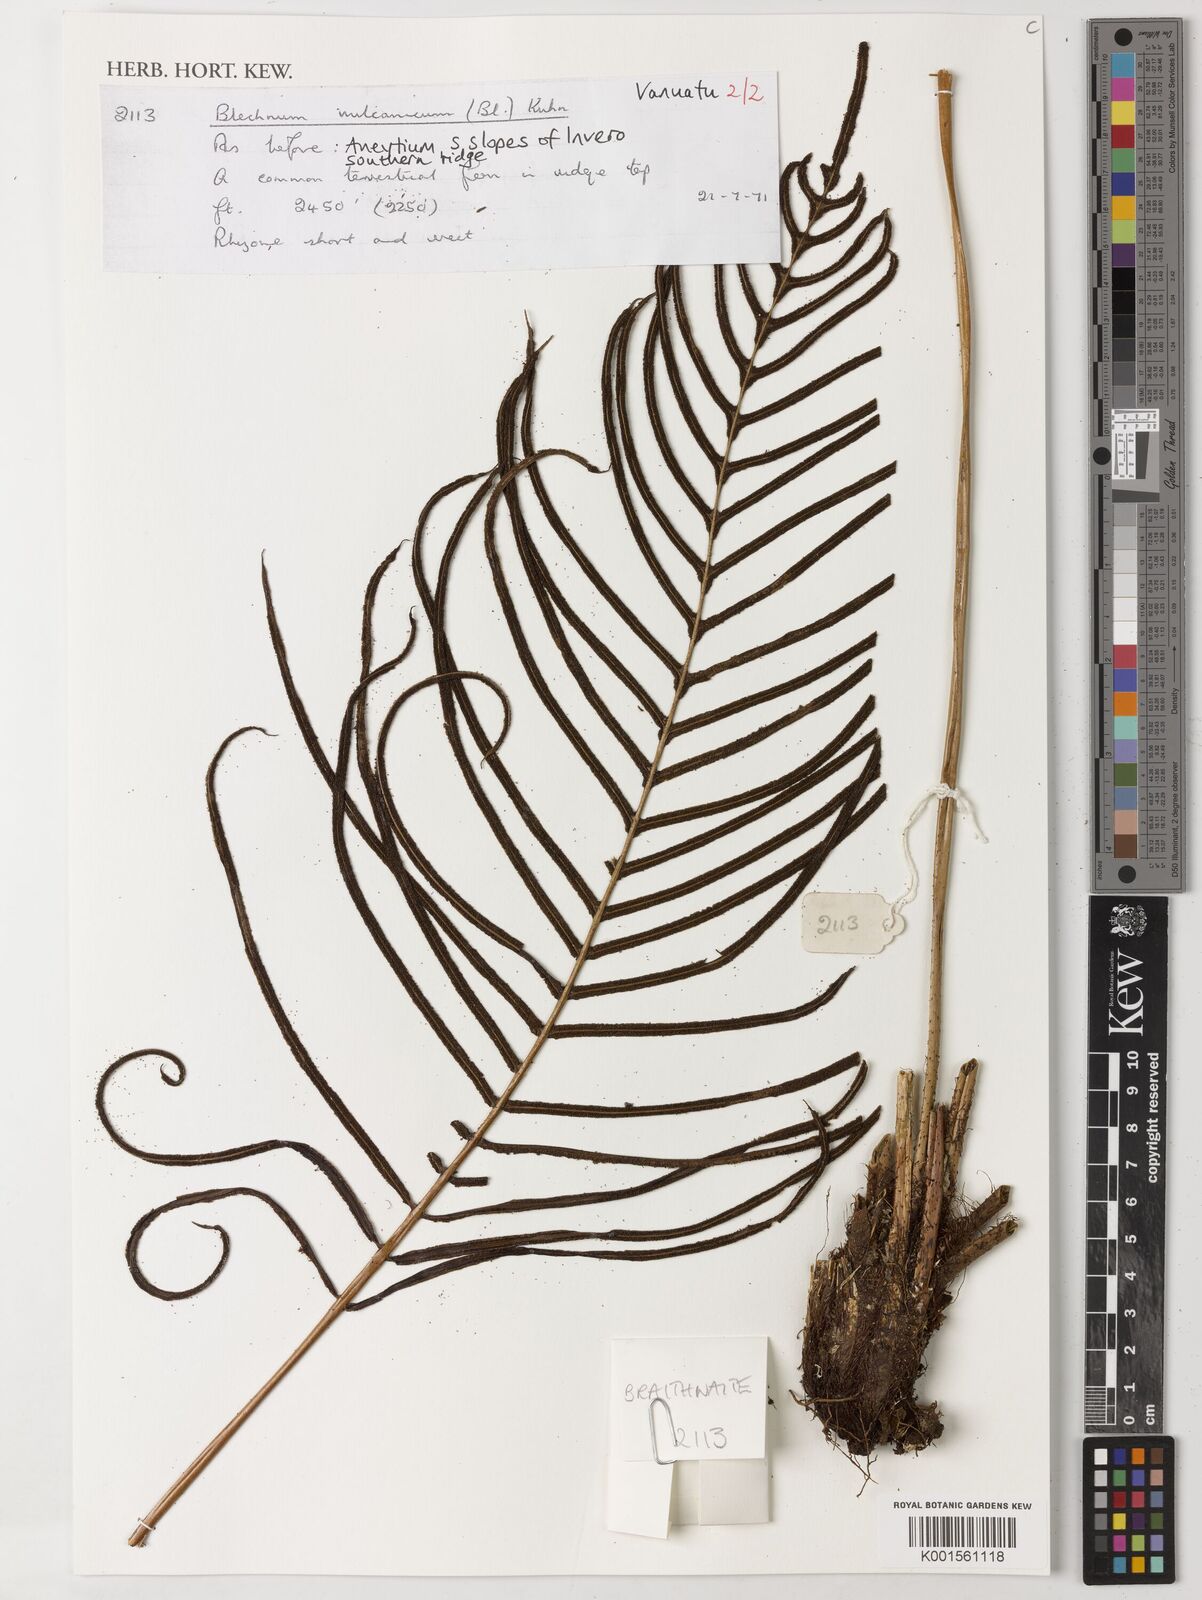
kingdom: Plantae
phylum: Tracheophyta
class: Polypodiopsida
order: Polypodiales
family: Blechnaceae
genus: Cranfillia
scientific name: Cranfillia vulcanica
